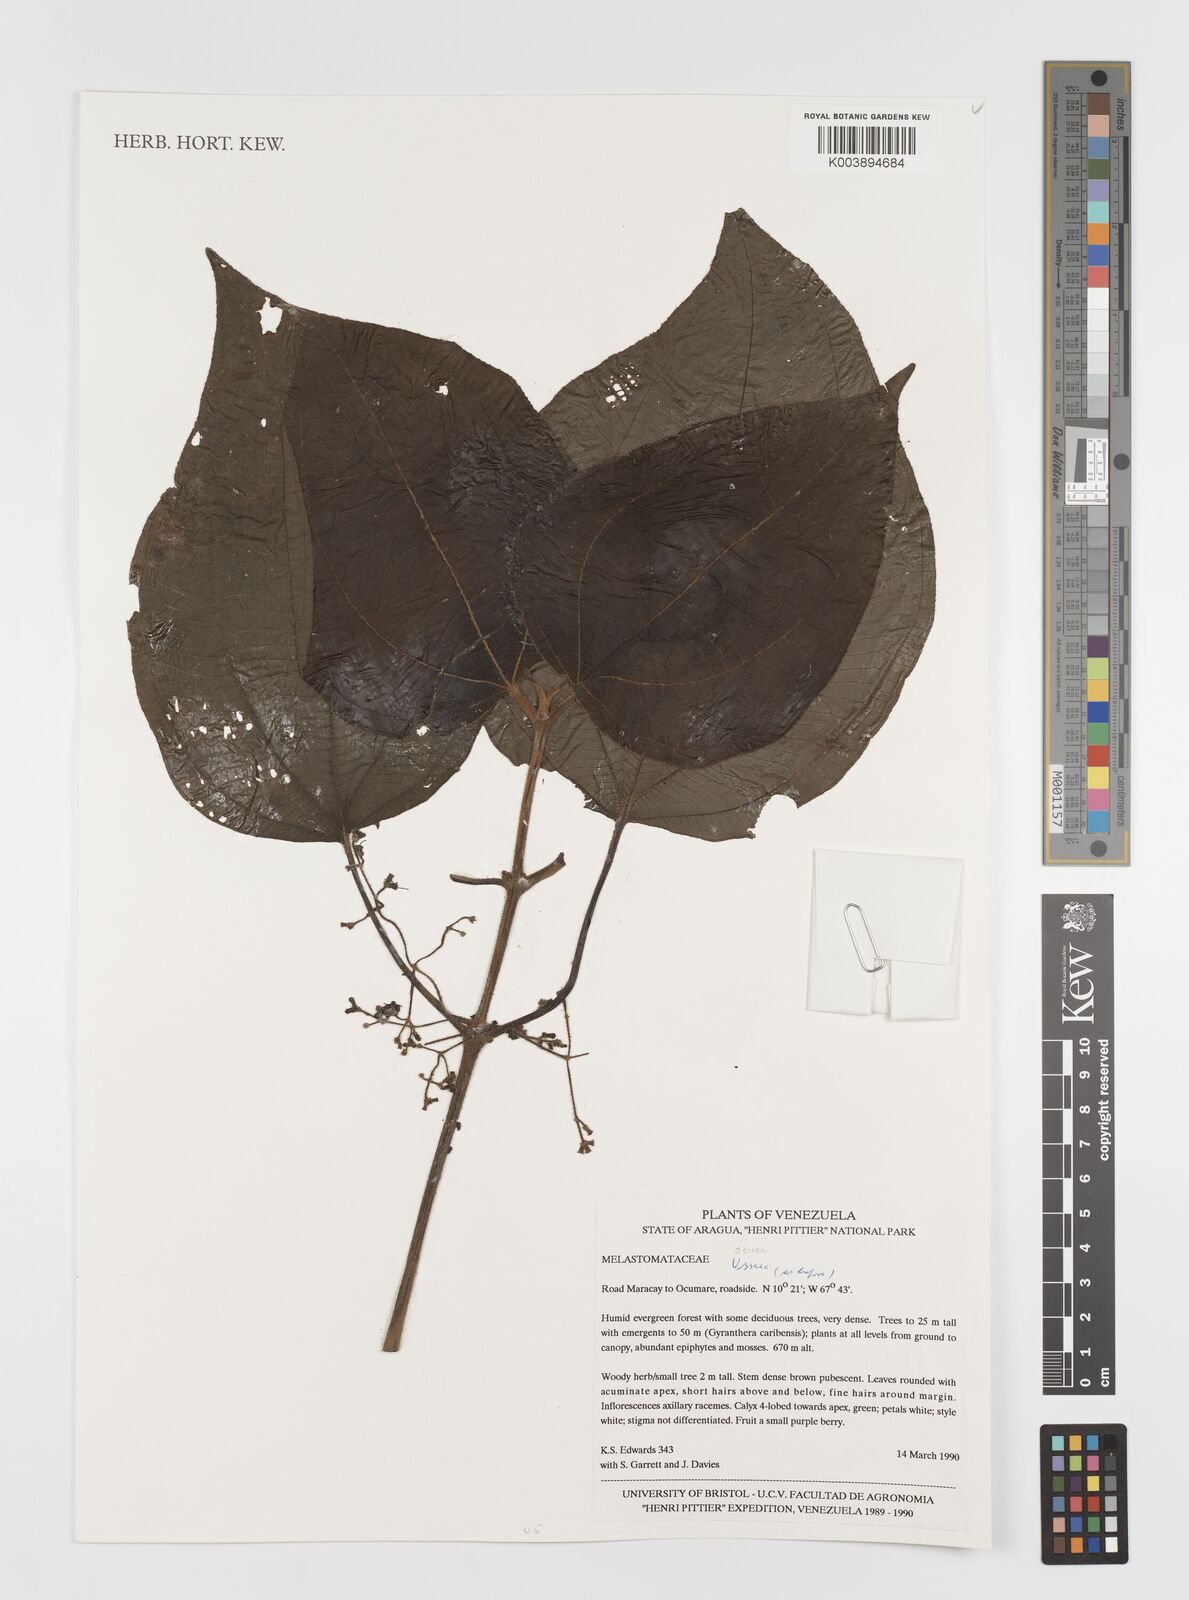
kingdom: Plantae
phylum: Tracheophyta
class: Magnoliopsida
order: Myrtales
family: Melastomataceae
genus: Ossaea
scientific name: Ossaea
